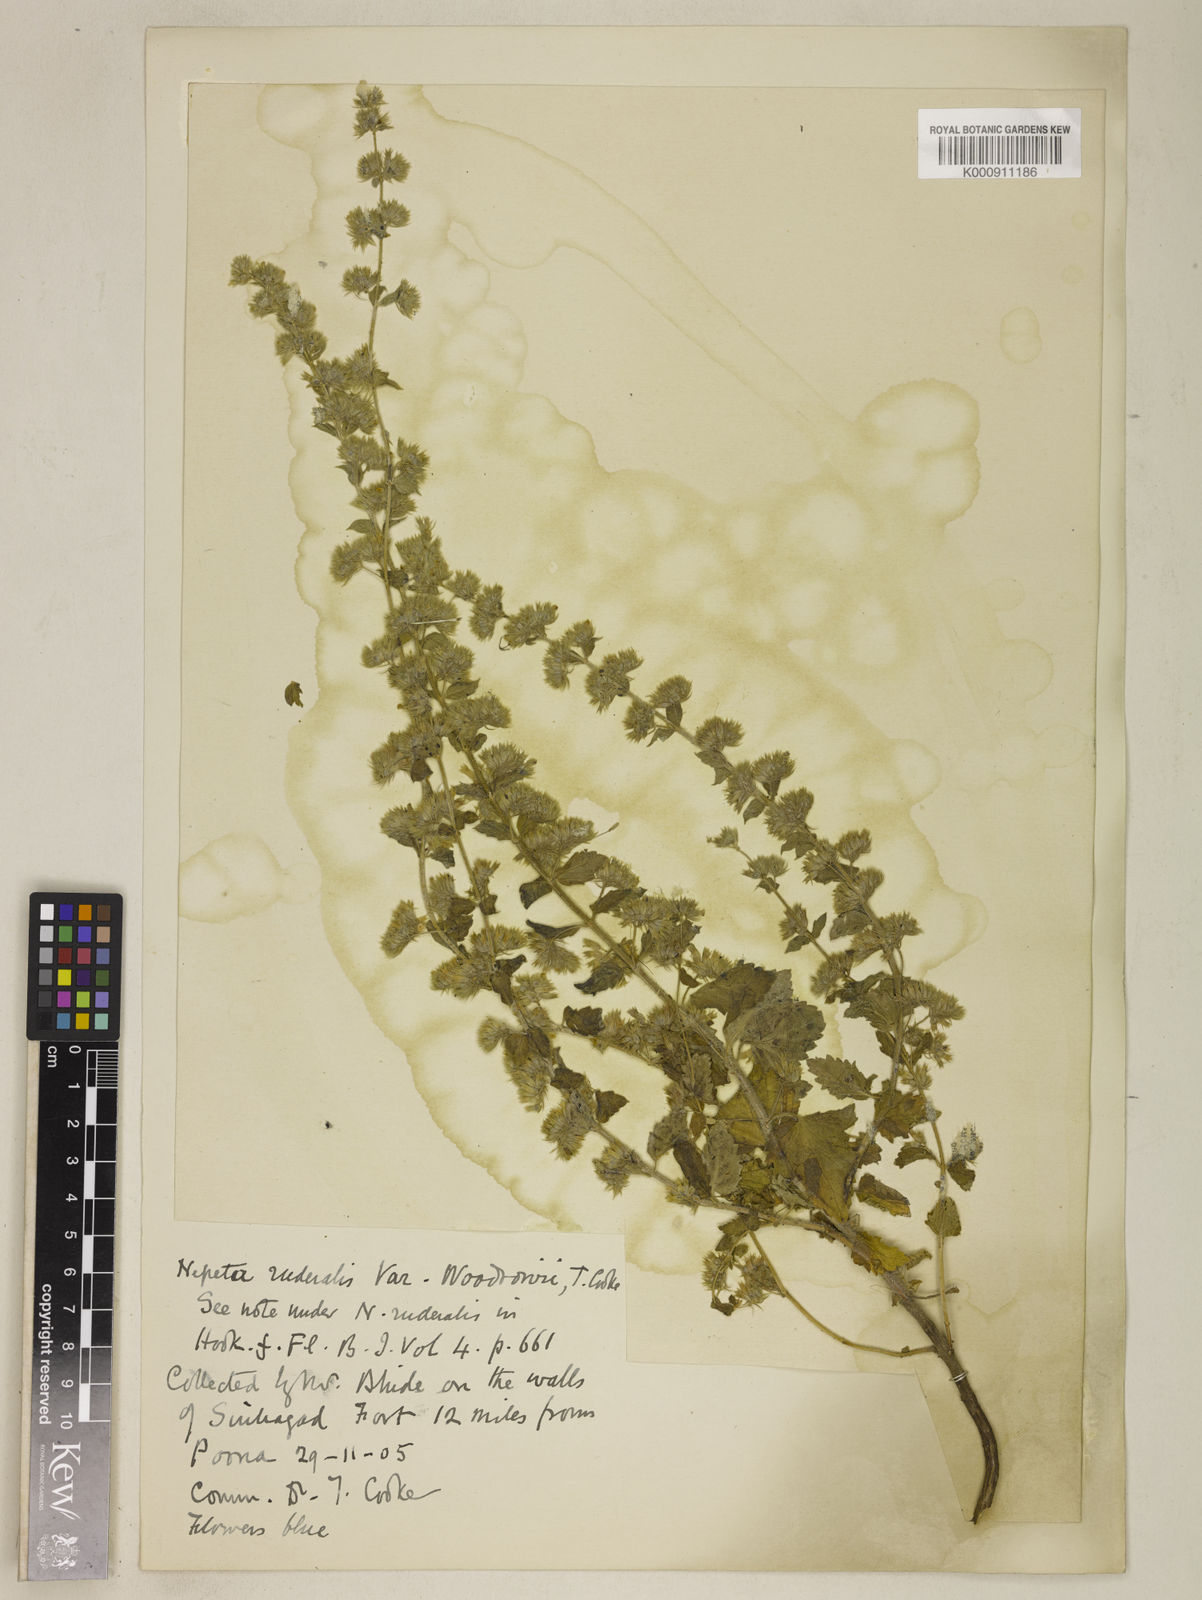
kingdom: Plantae
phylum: Tracheophyta
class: Magnoliopsida
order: Lamiales
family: Lamiaceae
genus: Nepeta
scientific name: Nepeta cataria
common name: Catnip
